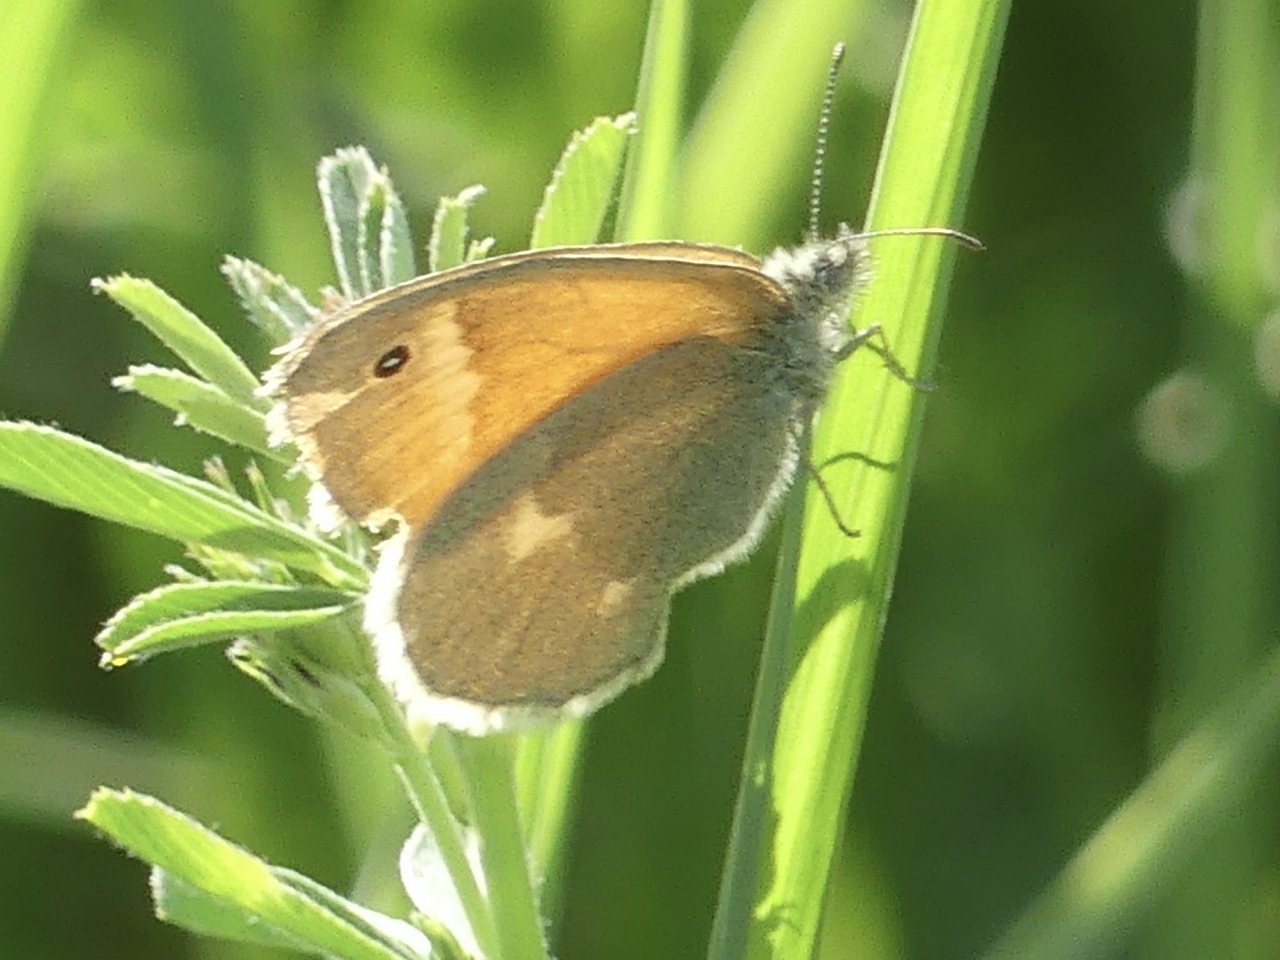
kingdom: Animalia
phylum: Arthropoda
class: Insecta
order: Lepidoptera
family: Nymphalidae
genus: Coenonympha
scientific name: Coenonympha tullia
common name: Large Heath
